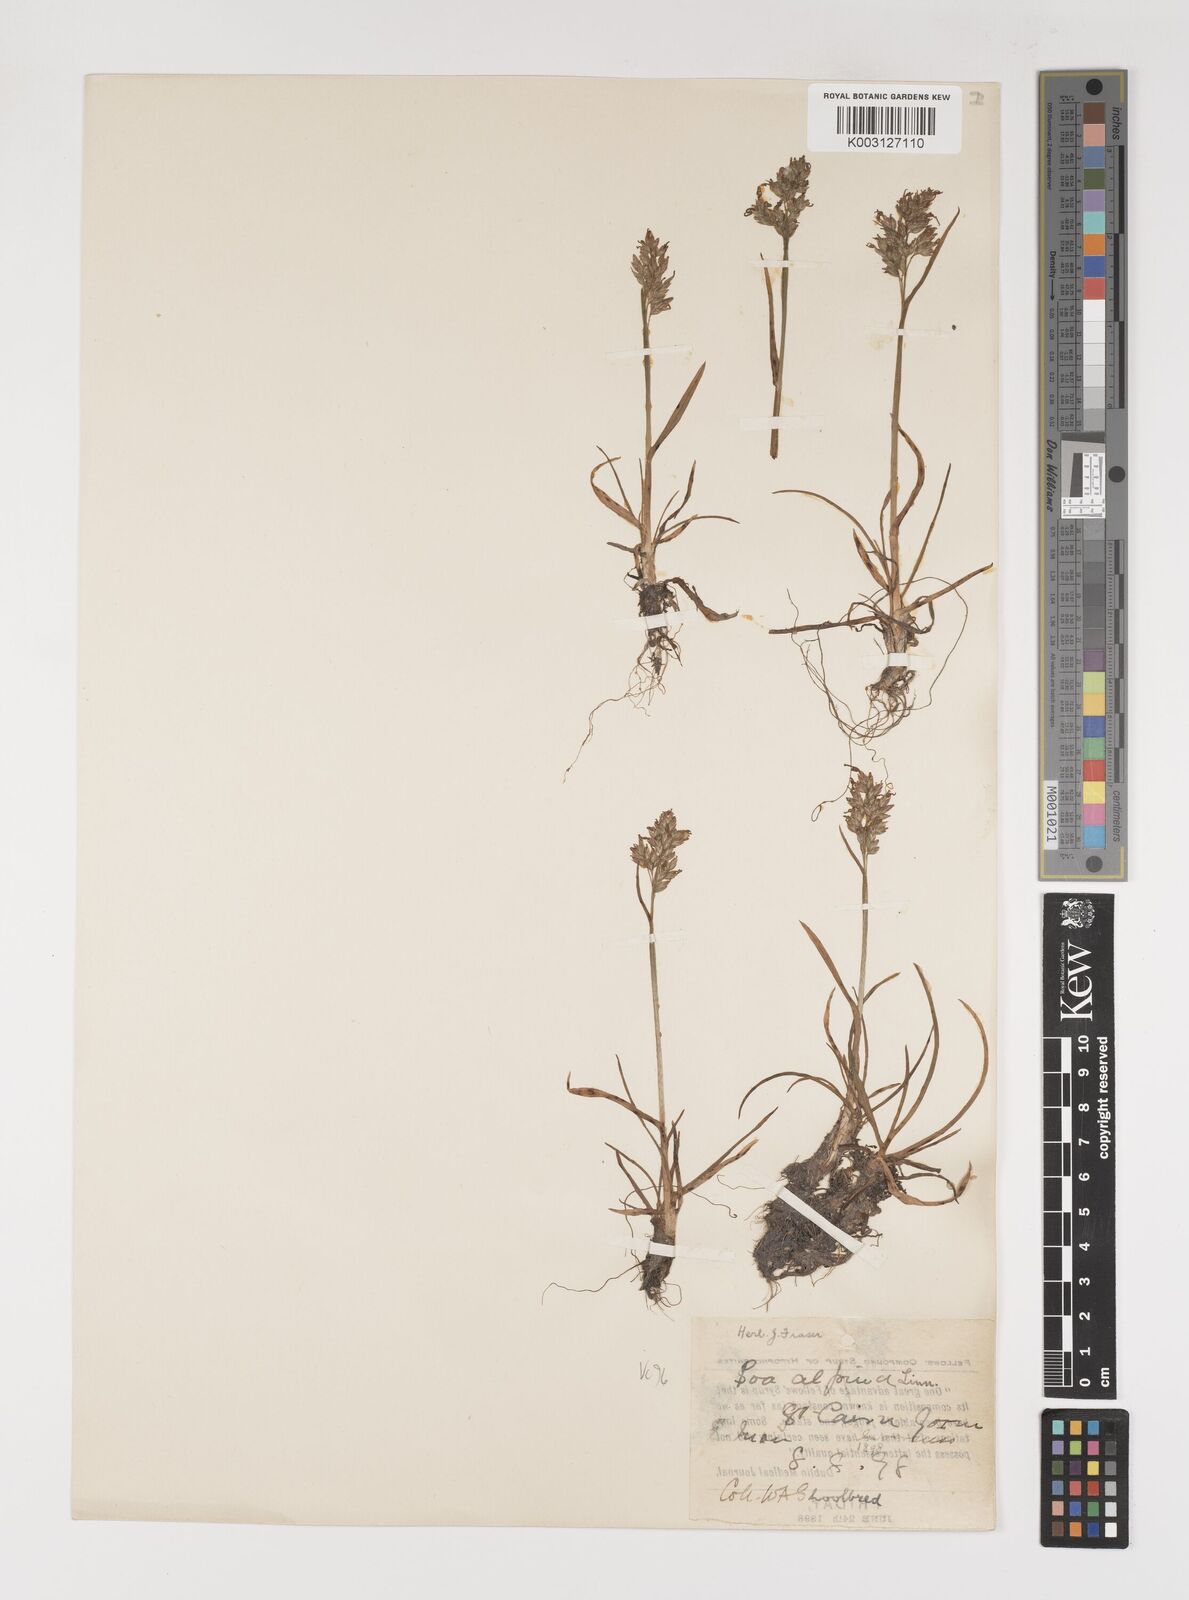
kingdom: Plantae
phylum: Tracheophyta
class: Liliopsida
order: Poales
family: Poaceae
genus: Poa
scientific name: Poa alpina
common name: Alpine bluegrass
